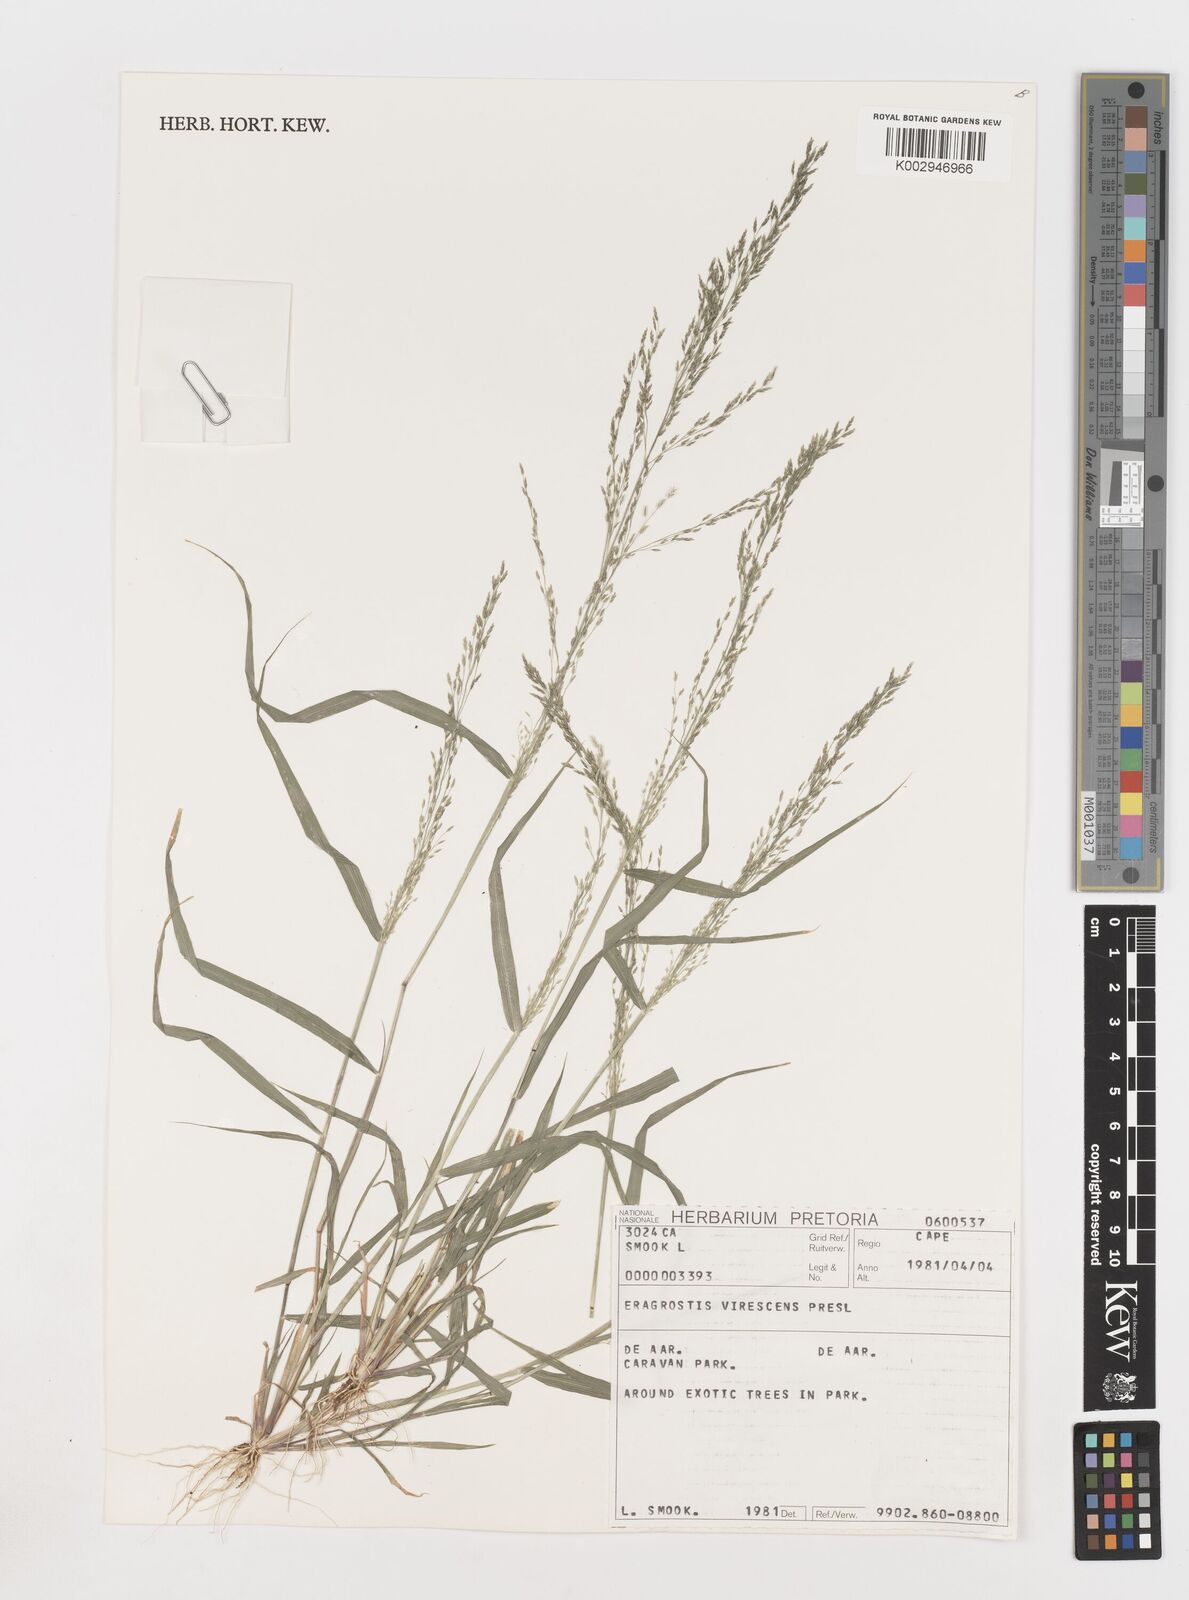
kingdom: Plantae
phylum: Tracheophyta
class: Liliopsida
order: Poales
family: Poaceae
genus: Eragrostis
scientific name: Eragrostis
